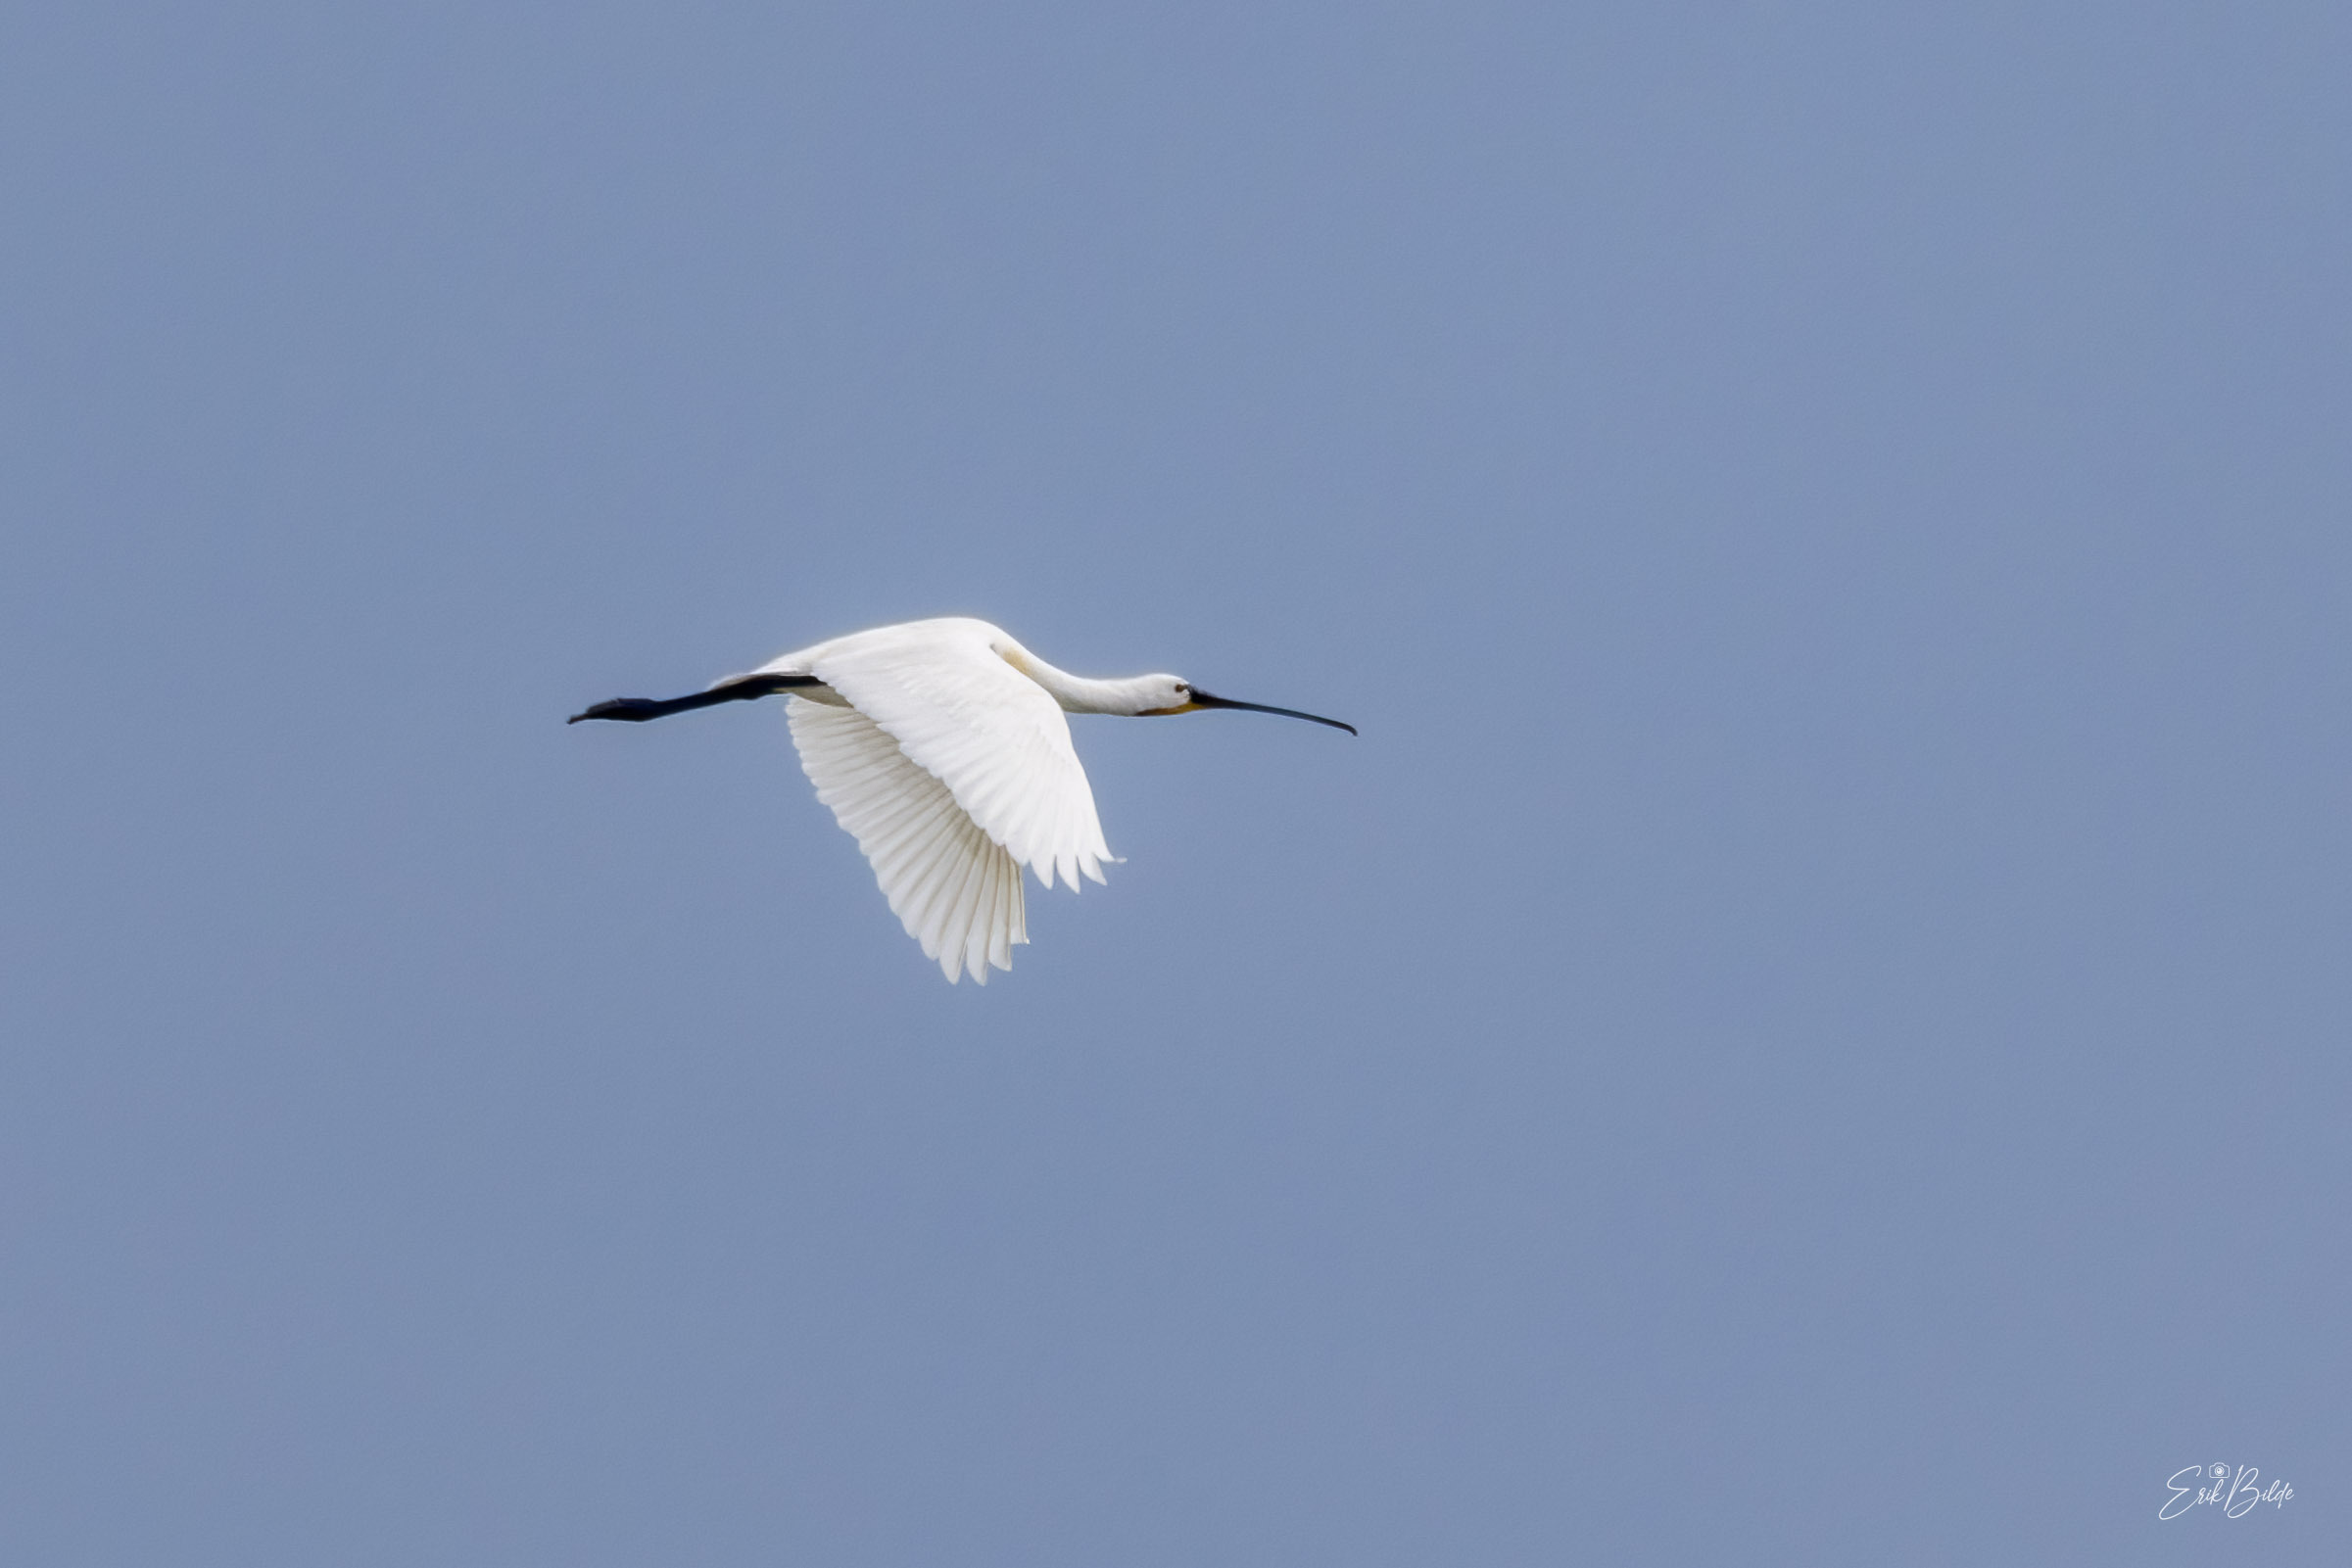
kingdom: Animalia
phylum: Chordata
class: Aves
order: Pelecaniformes
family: Threskiornithidae
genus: Platalea
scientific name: Platalea leucorodia
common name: Skestork
